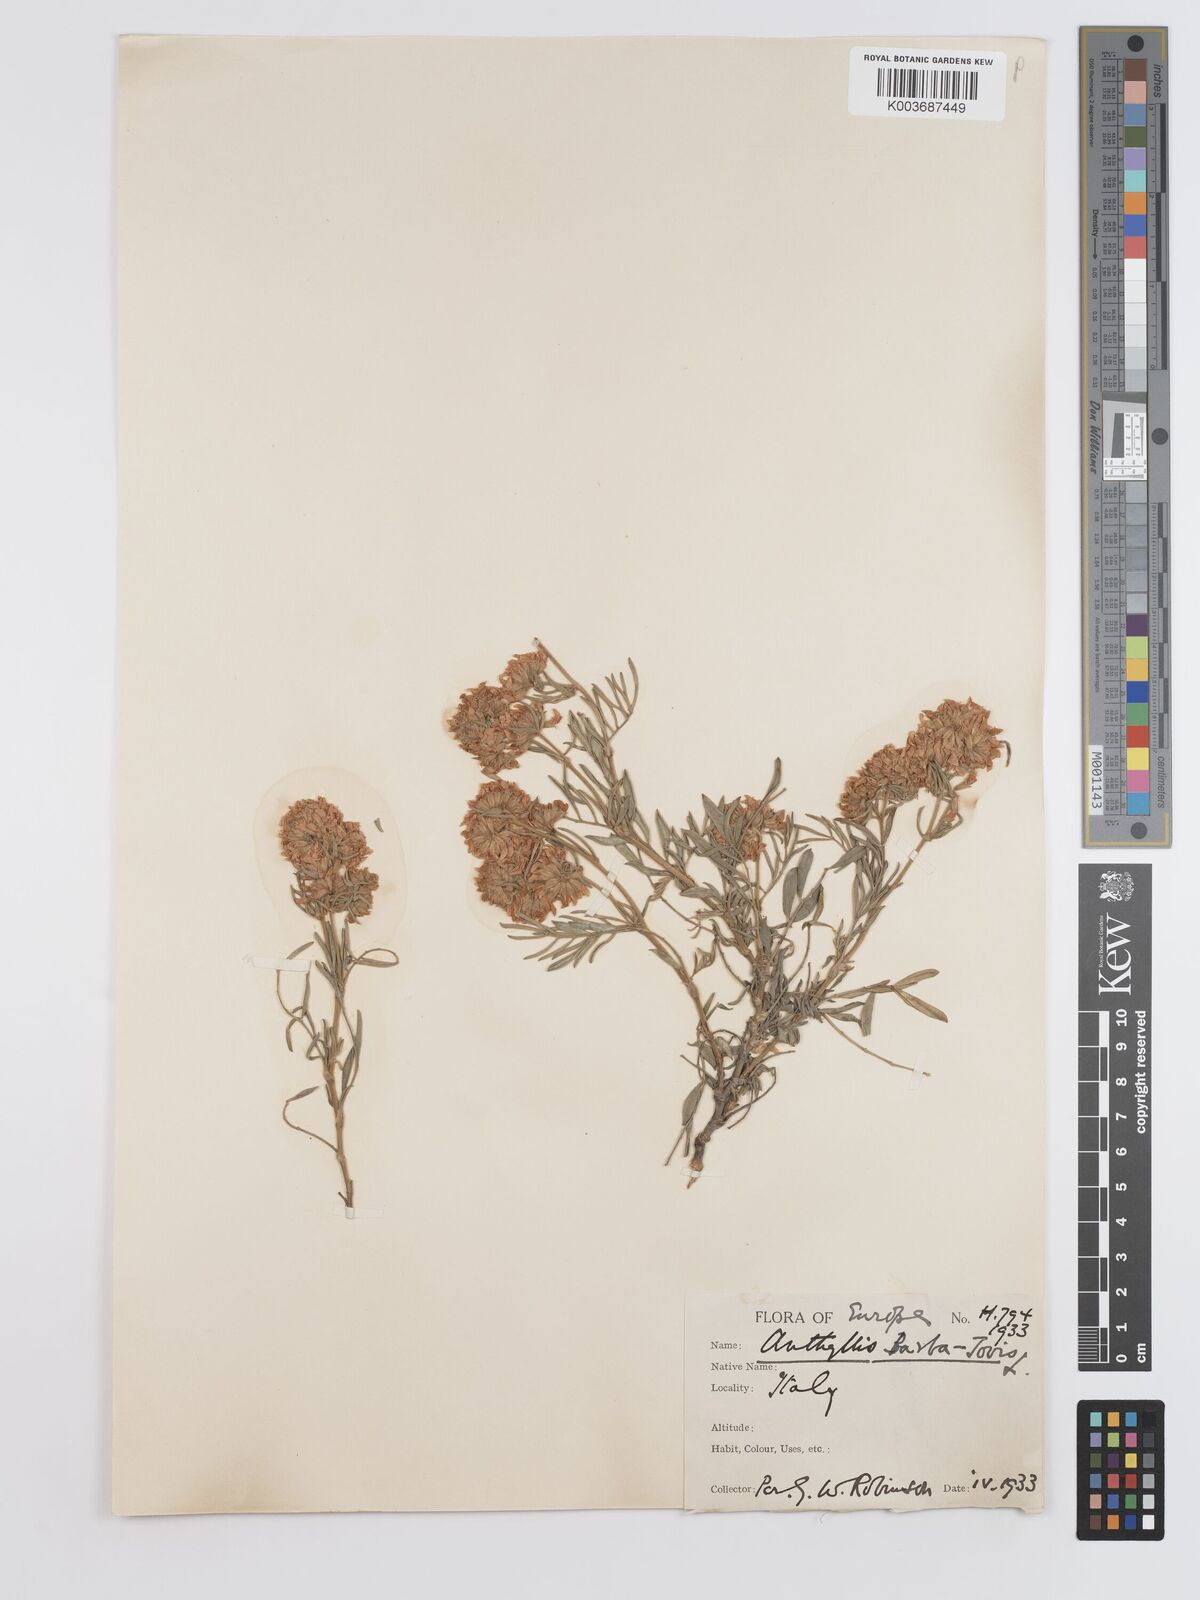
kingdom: Plantae
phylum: Tracheophyta
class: Magnoliopsida
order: Fabales
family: Fabaceae
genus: Anthyllis
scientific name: Anthyllis barba-jovis
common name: Jupiter's-beard
